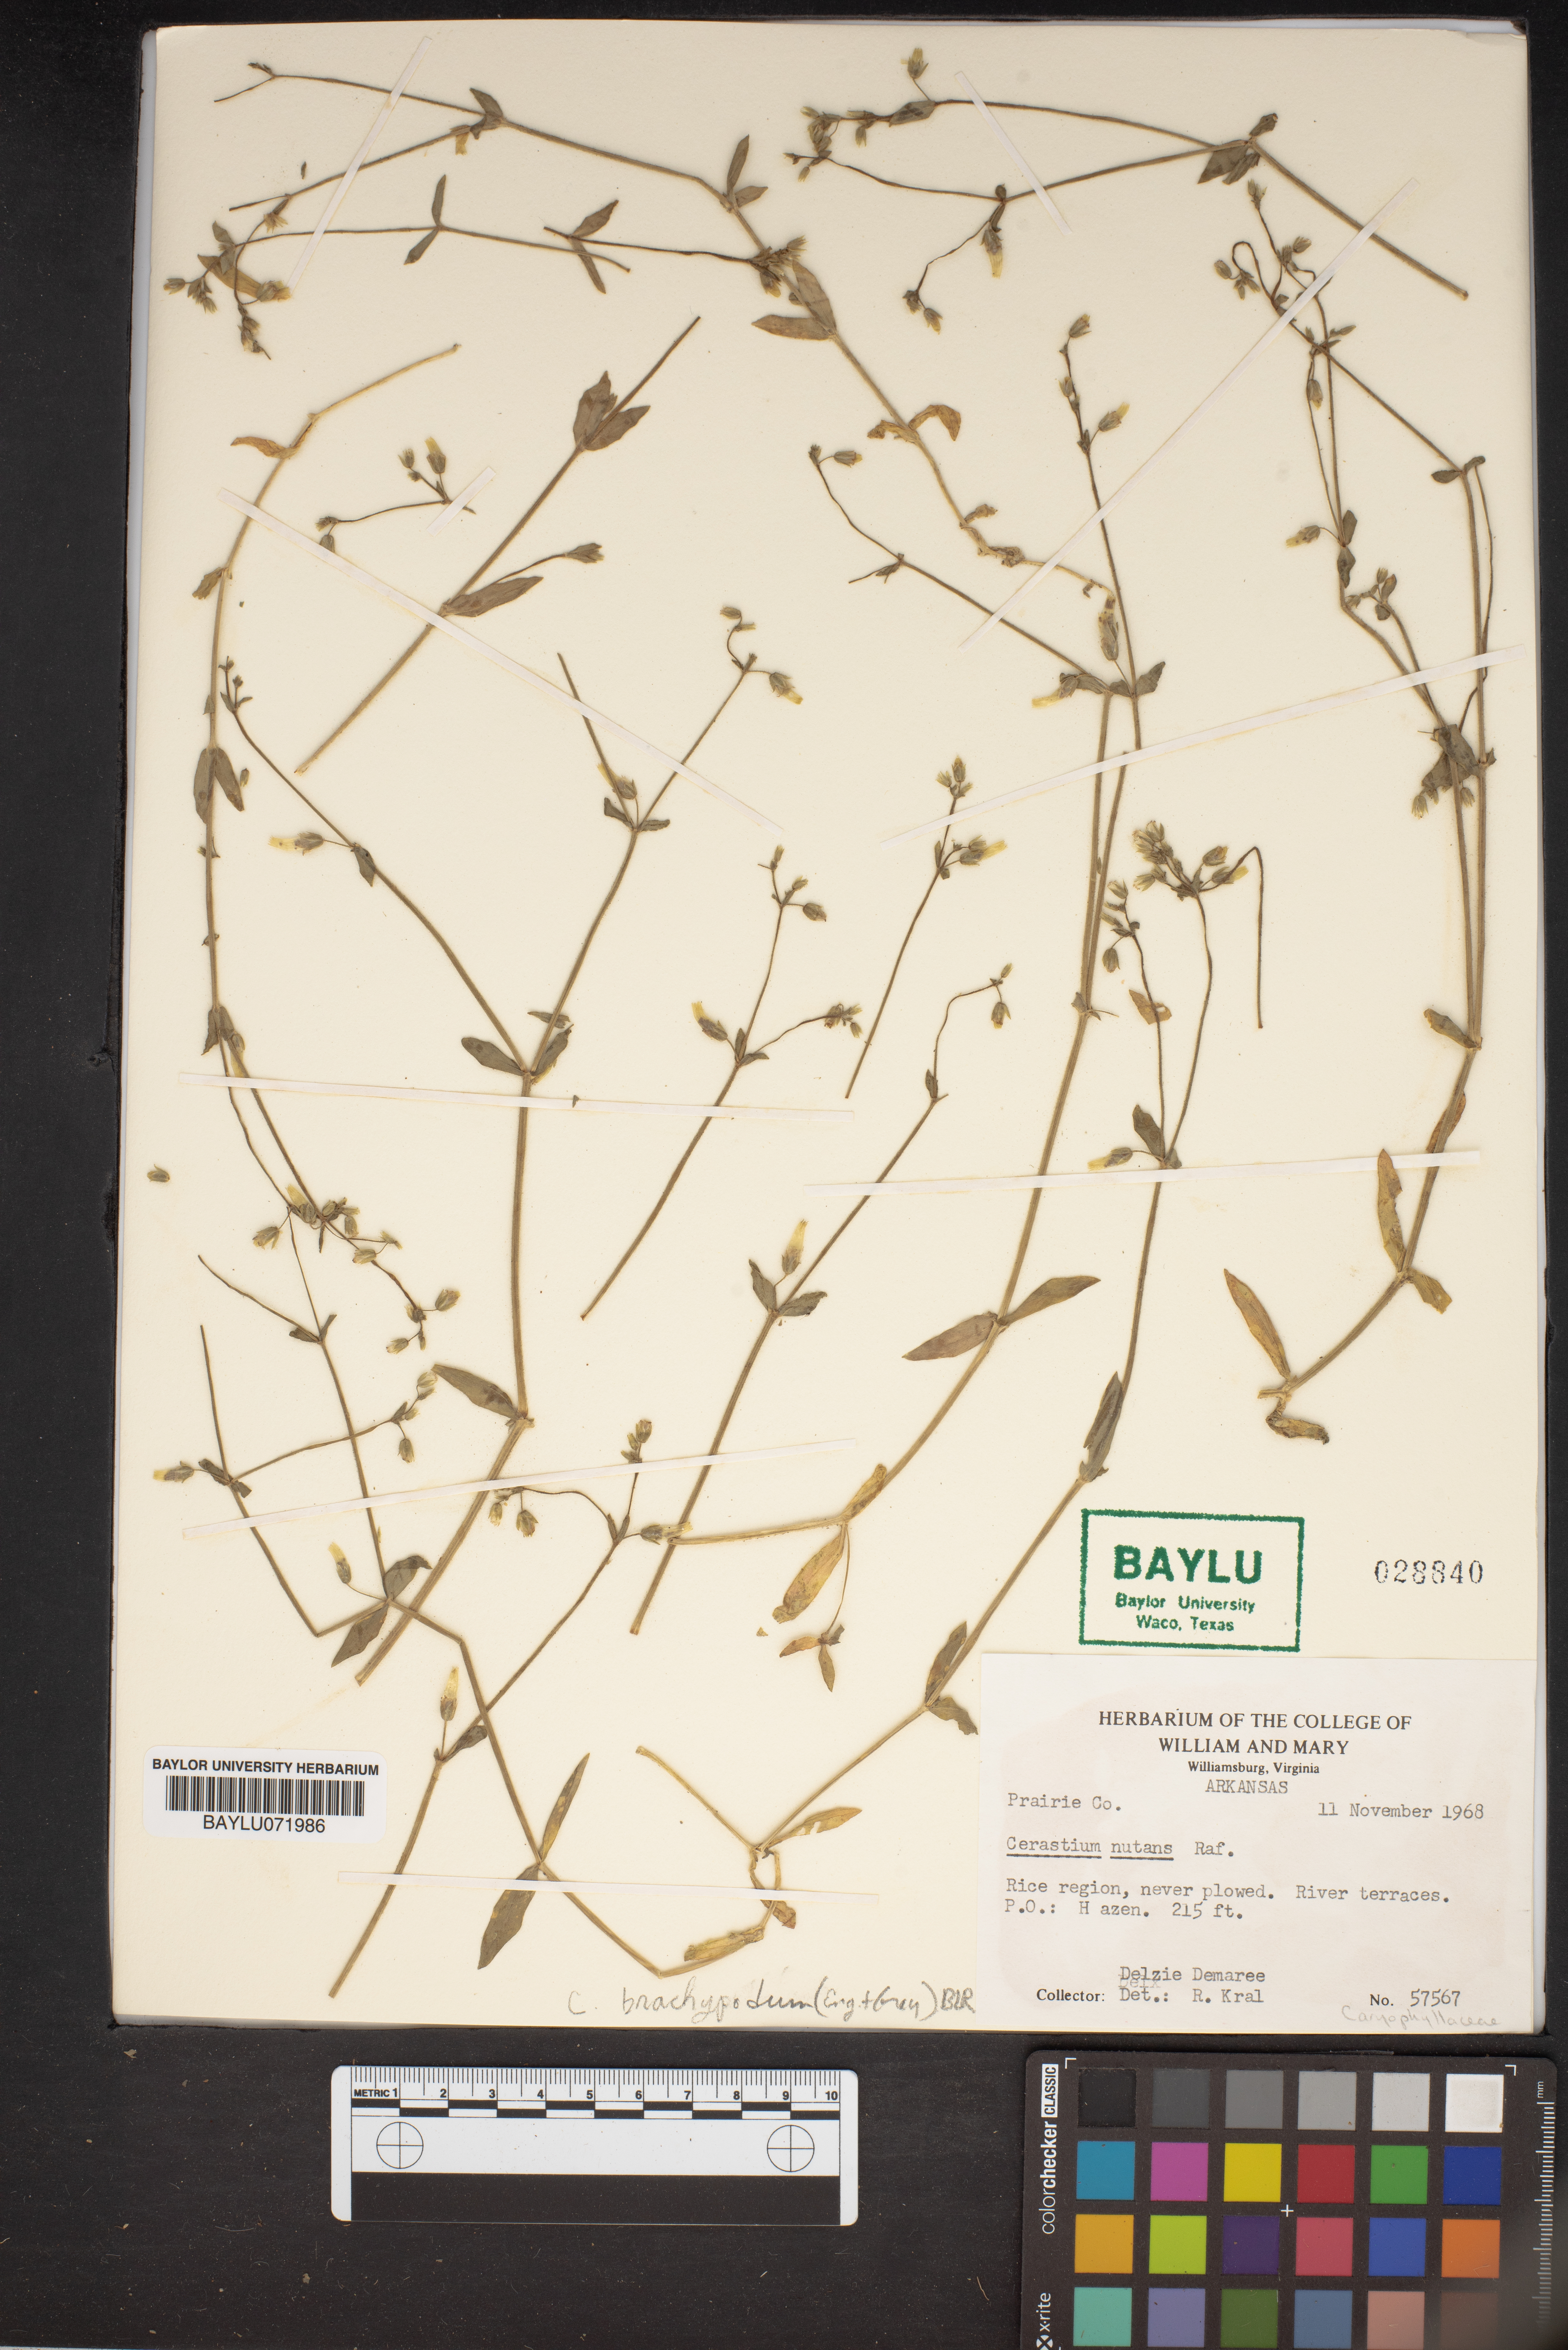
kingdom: Plantae
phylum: Tracheophyta
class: Magnoliopsida
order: Caryophyllales
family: Caryophyllaceae
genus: Cerastium
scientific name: Cerastium nutans
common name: Long-stalked chickweed
